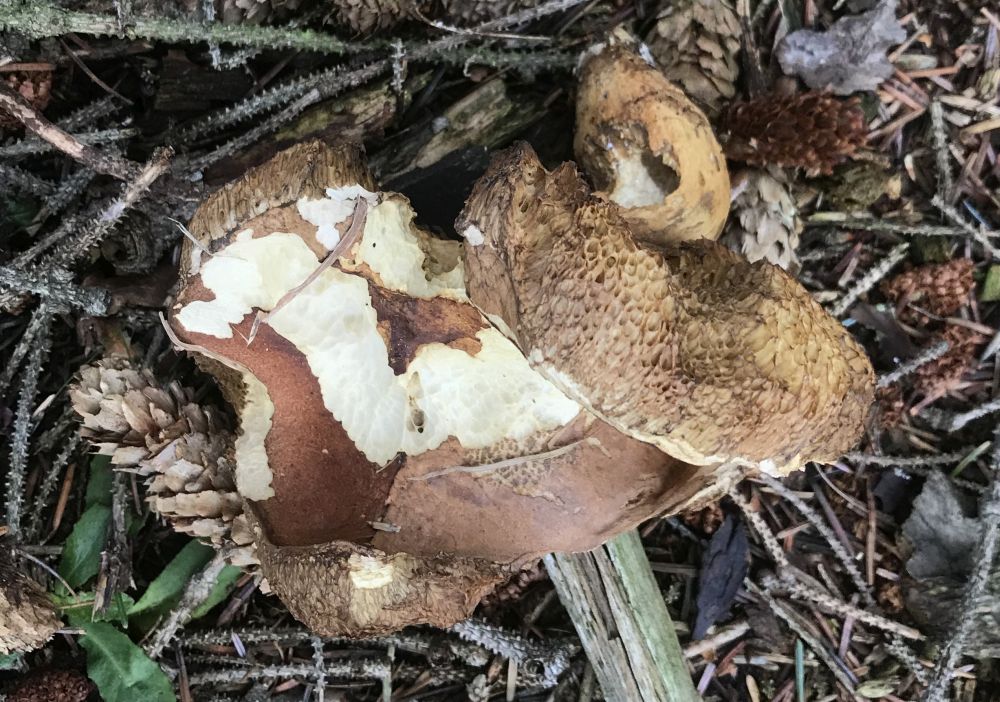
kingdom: Fungi
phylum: Basidiomycota
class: Agaricomycetes
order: Boletales
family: Boletaceae
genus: Imleria
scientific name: Imleria badia
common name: brunstokket rørhat
